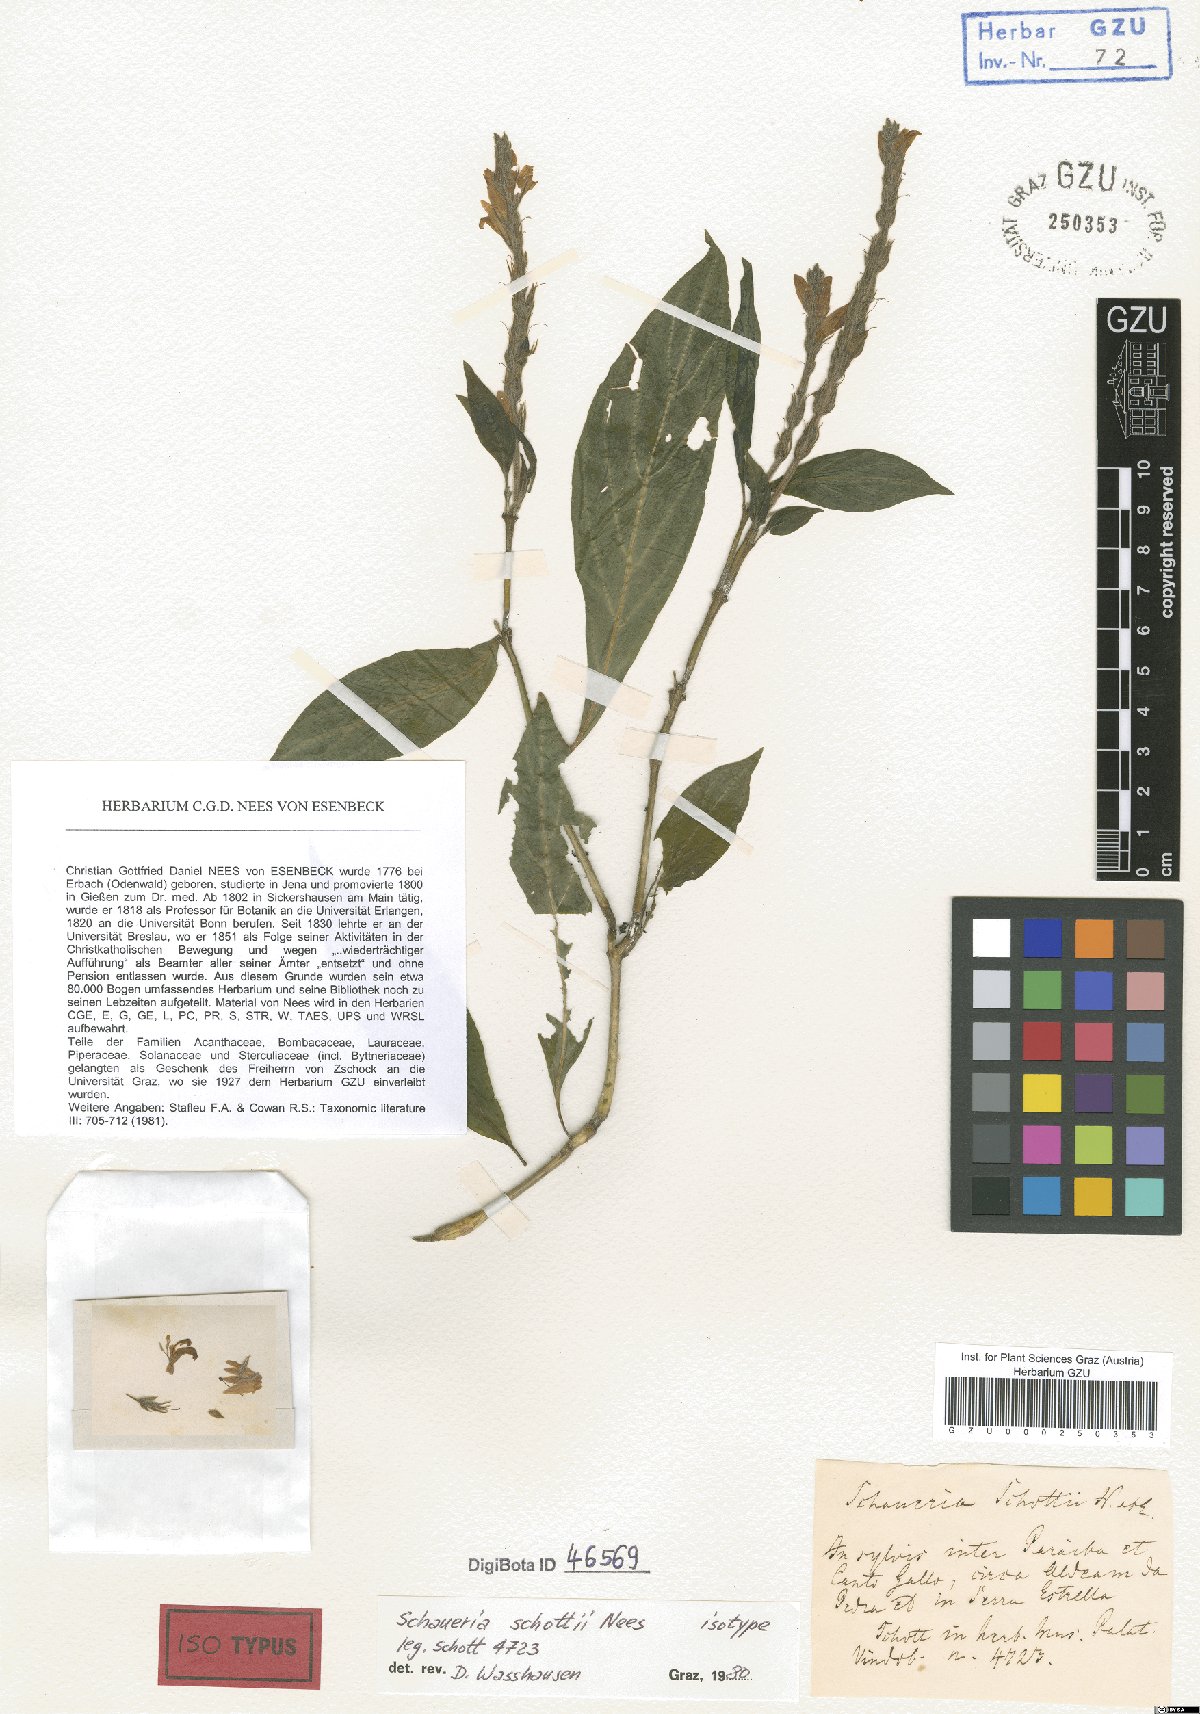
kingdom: Plantae
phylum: Tracheophyta
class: Magnoliopsida
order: Lamiales
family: Acanthaceae
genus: Schaueria
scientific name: Schaueria spicata
